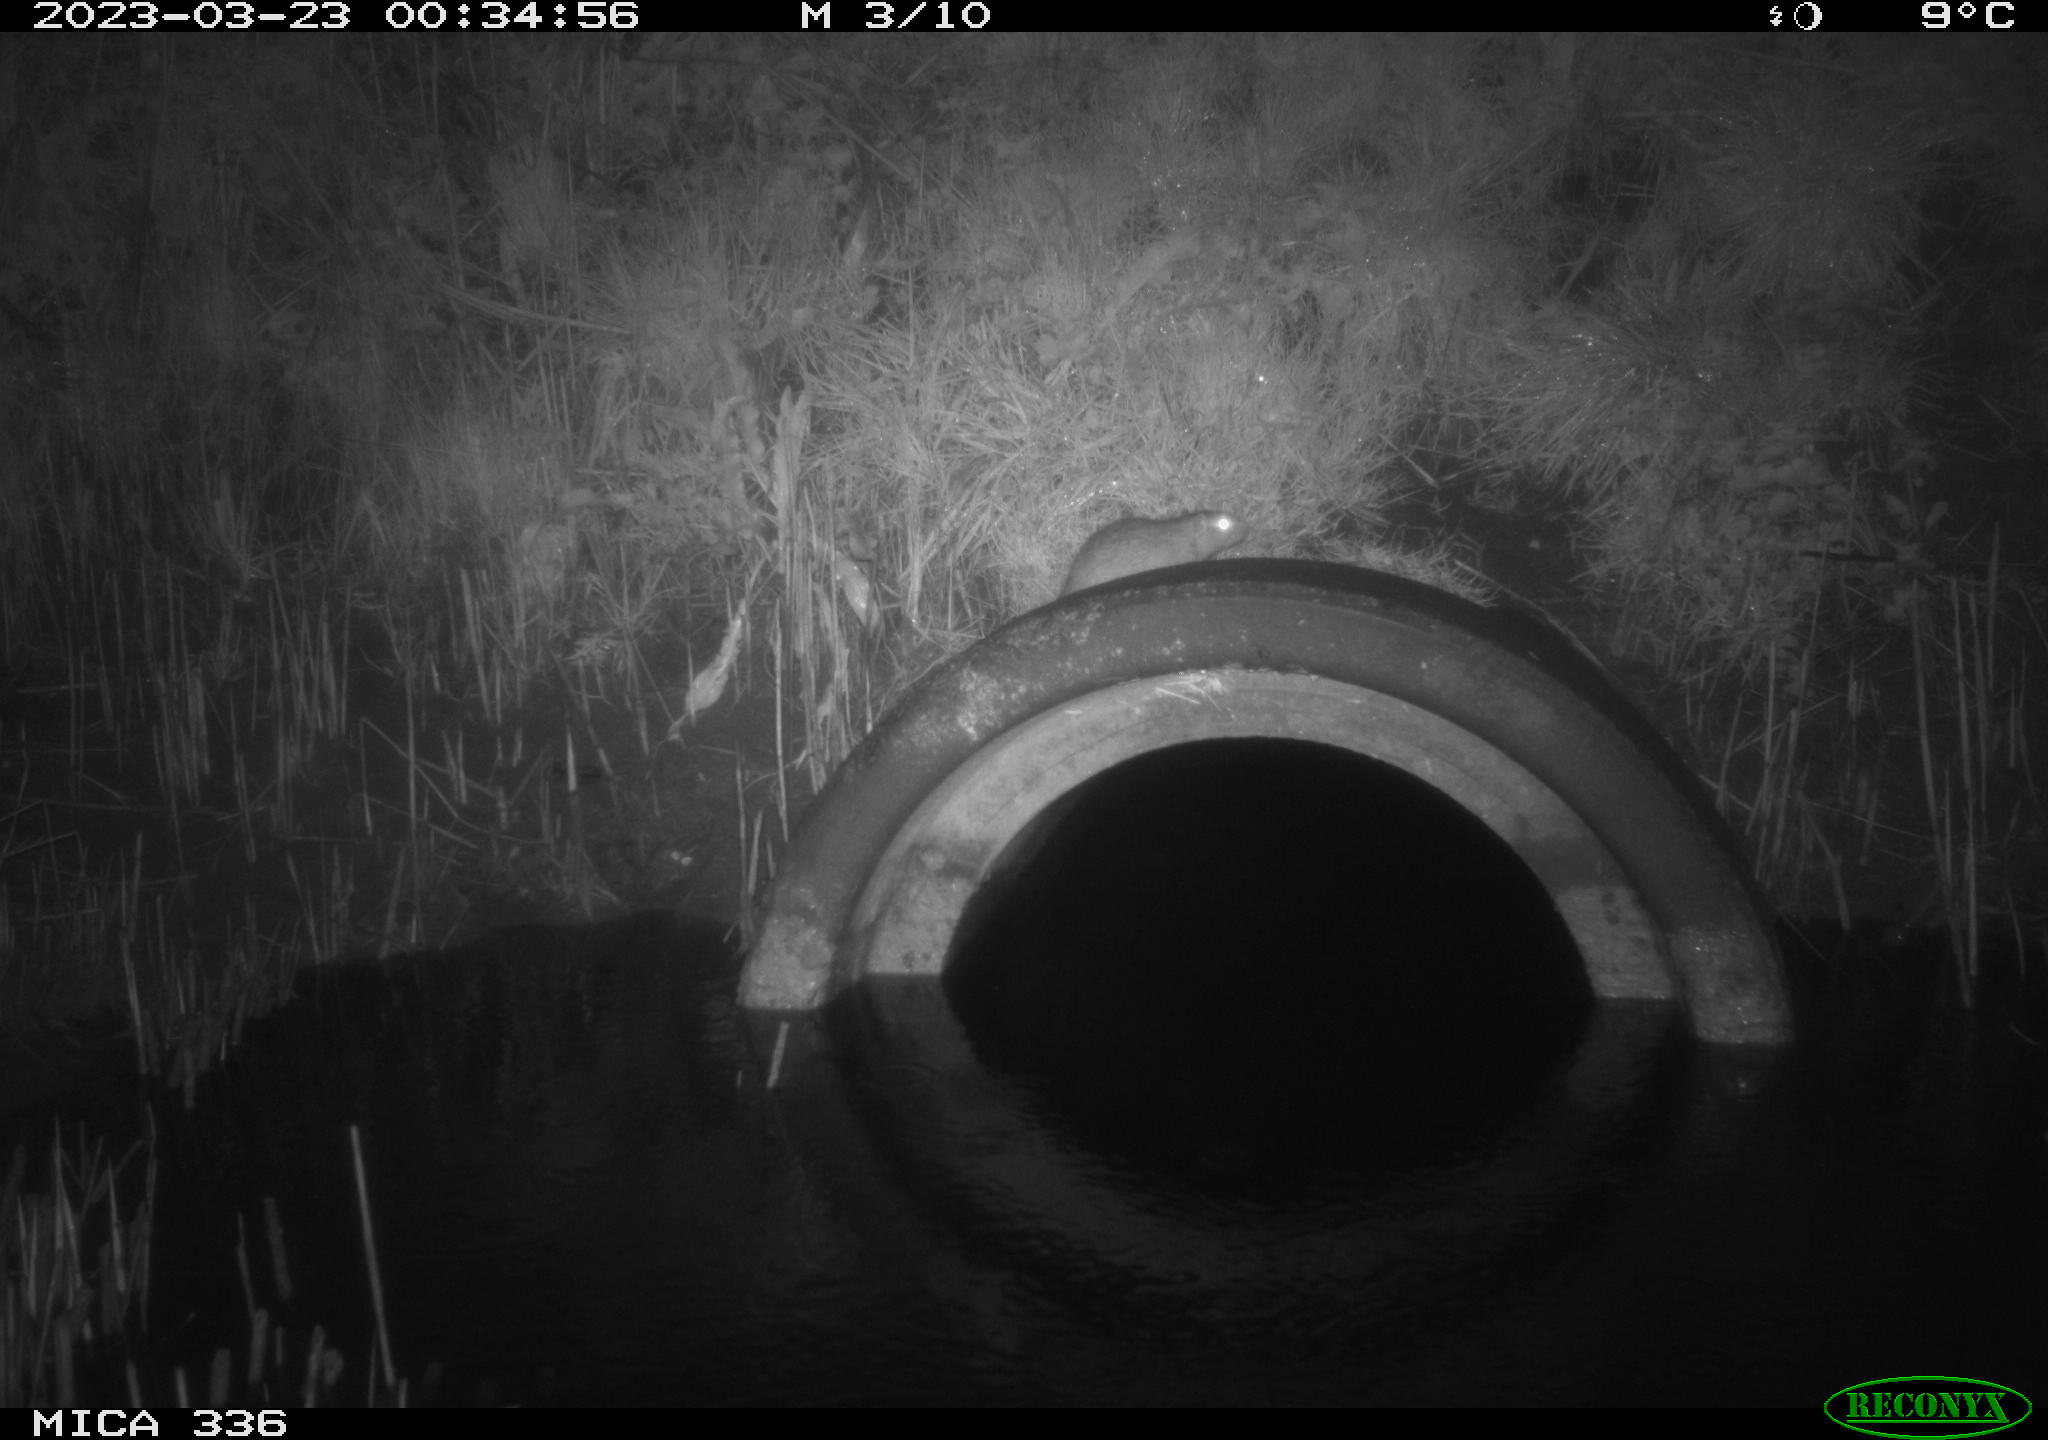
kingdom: Animalia
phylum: Chordata
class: Mammalia
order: Rodentia
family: Muridae
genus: Rattus
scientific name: Rattus norvegicus
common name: Brown rat
